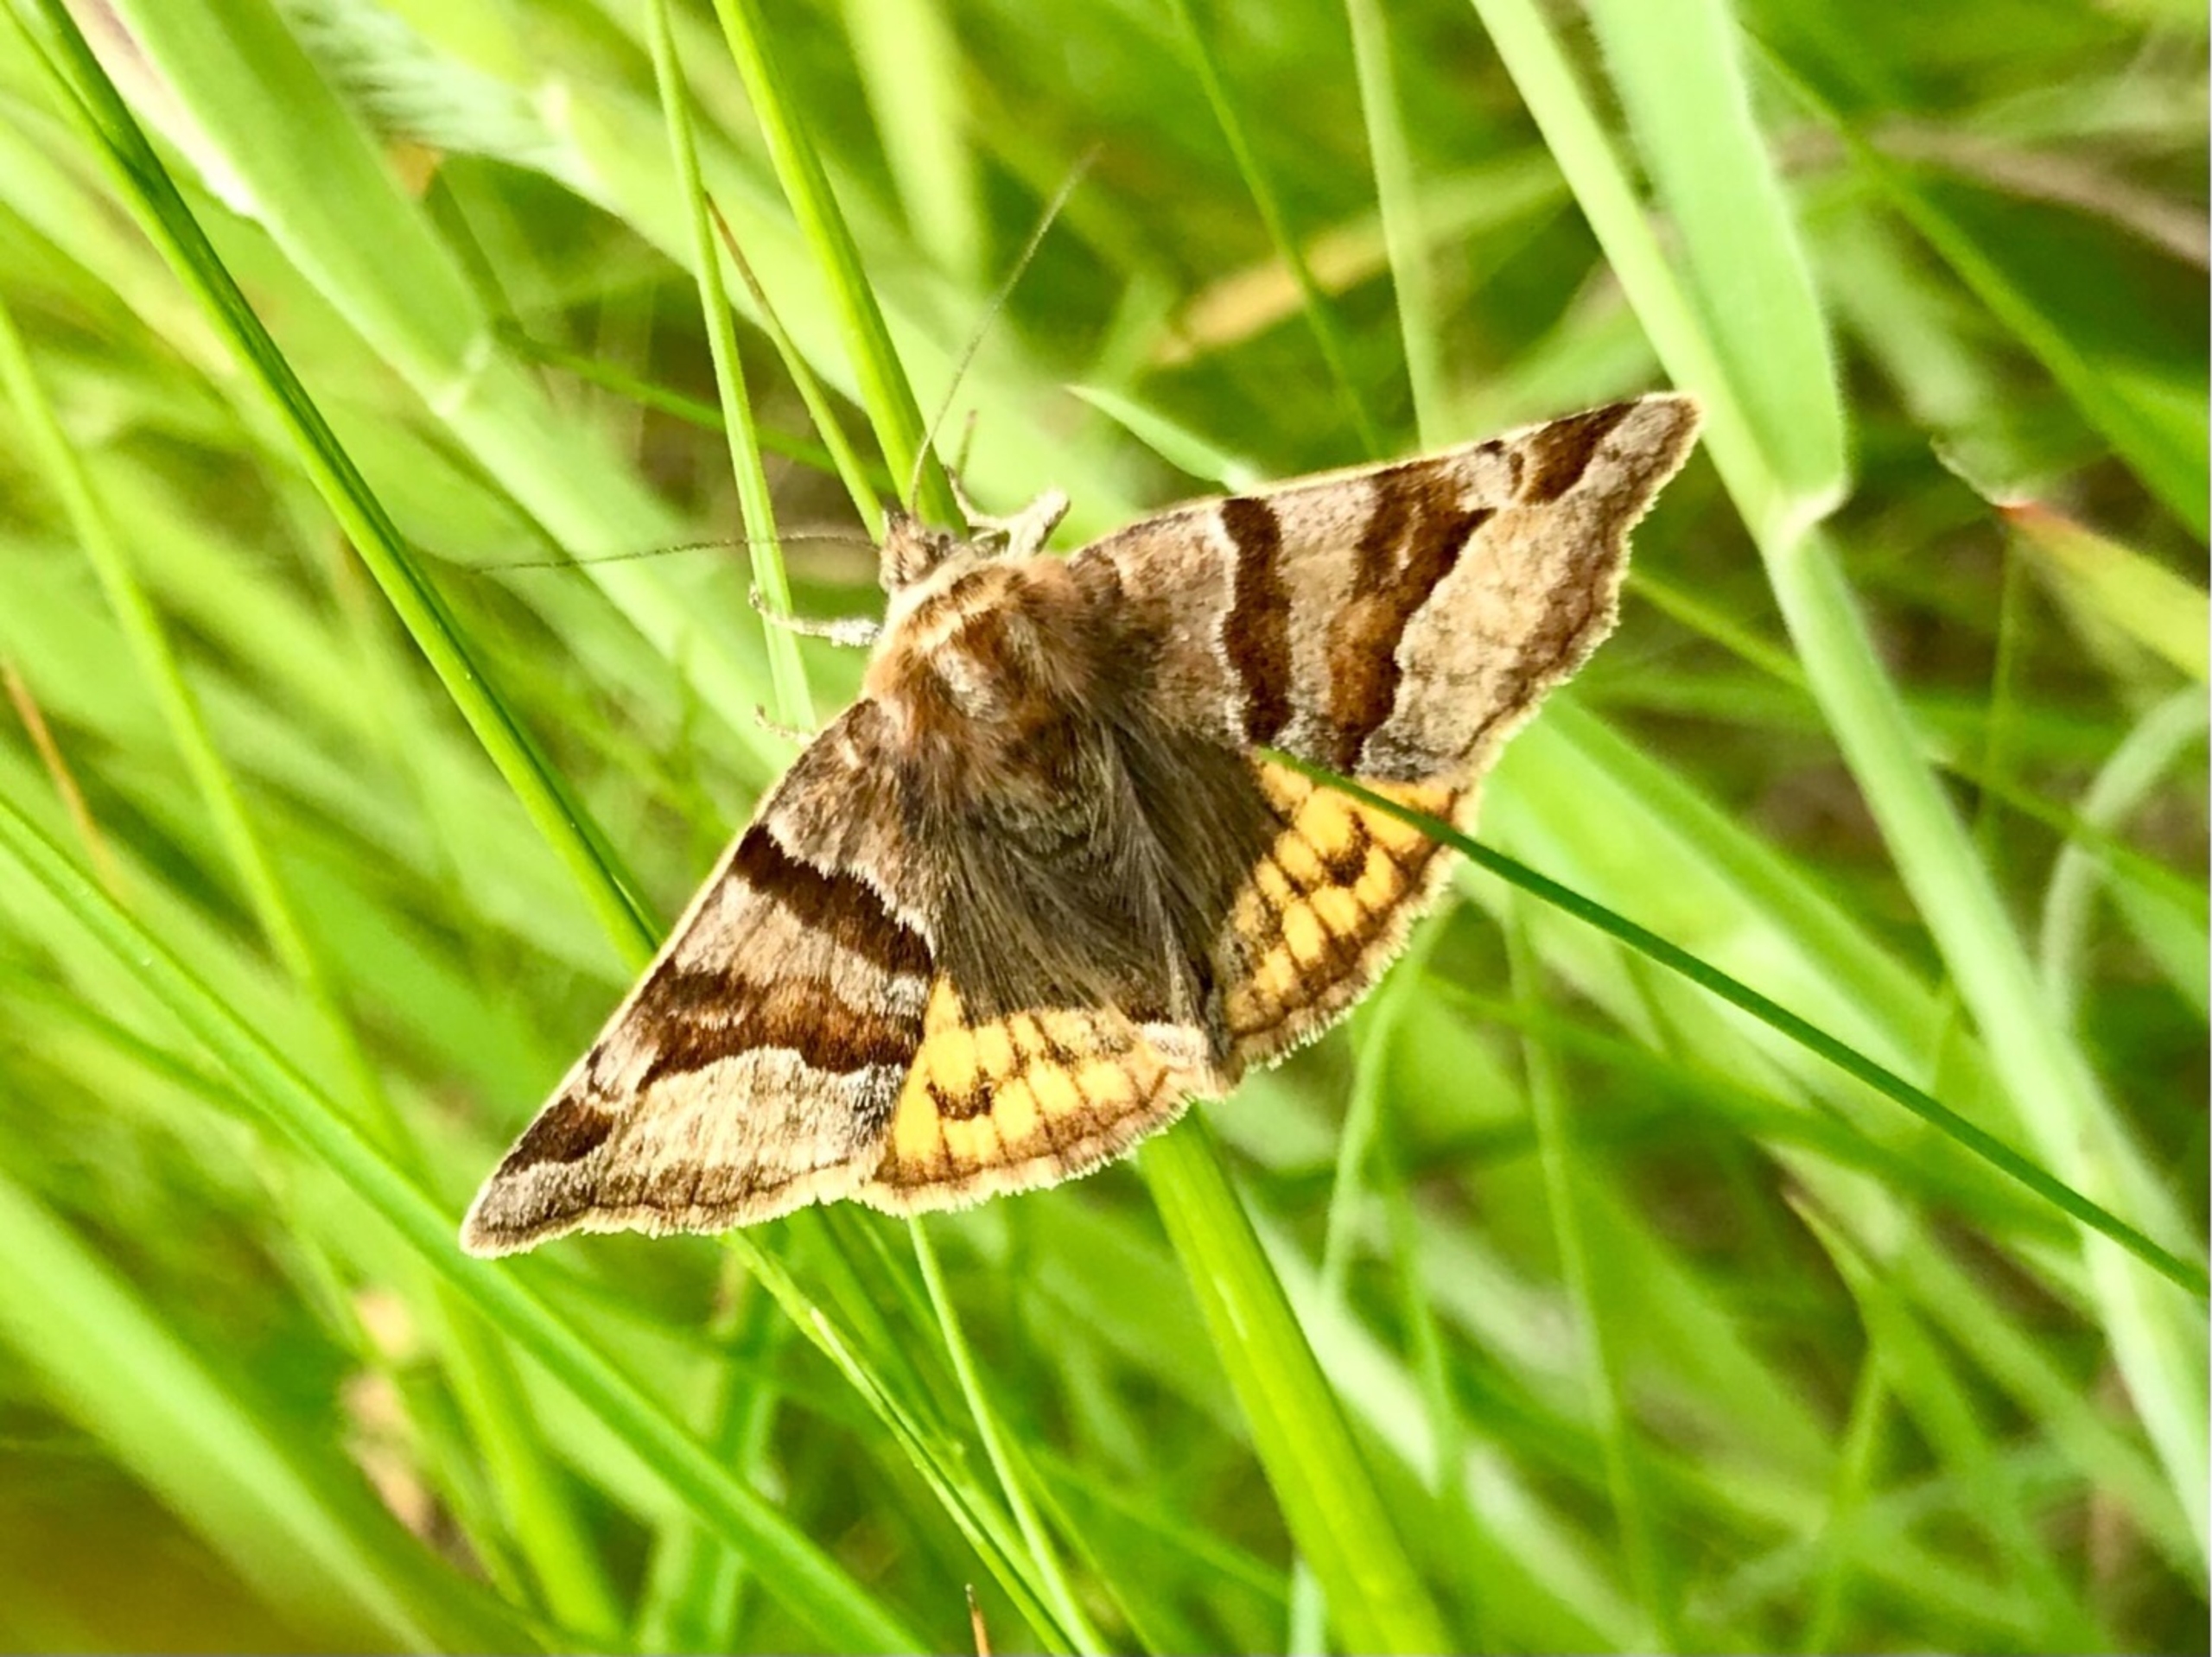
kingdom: Animalia
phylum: Arthropoda
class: Insecta
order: Lepidoptera
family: Erebidae
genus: Euclidia
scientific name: Euclidia glyphica
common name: Brun kløverugle
